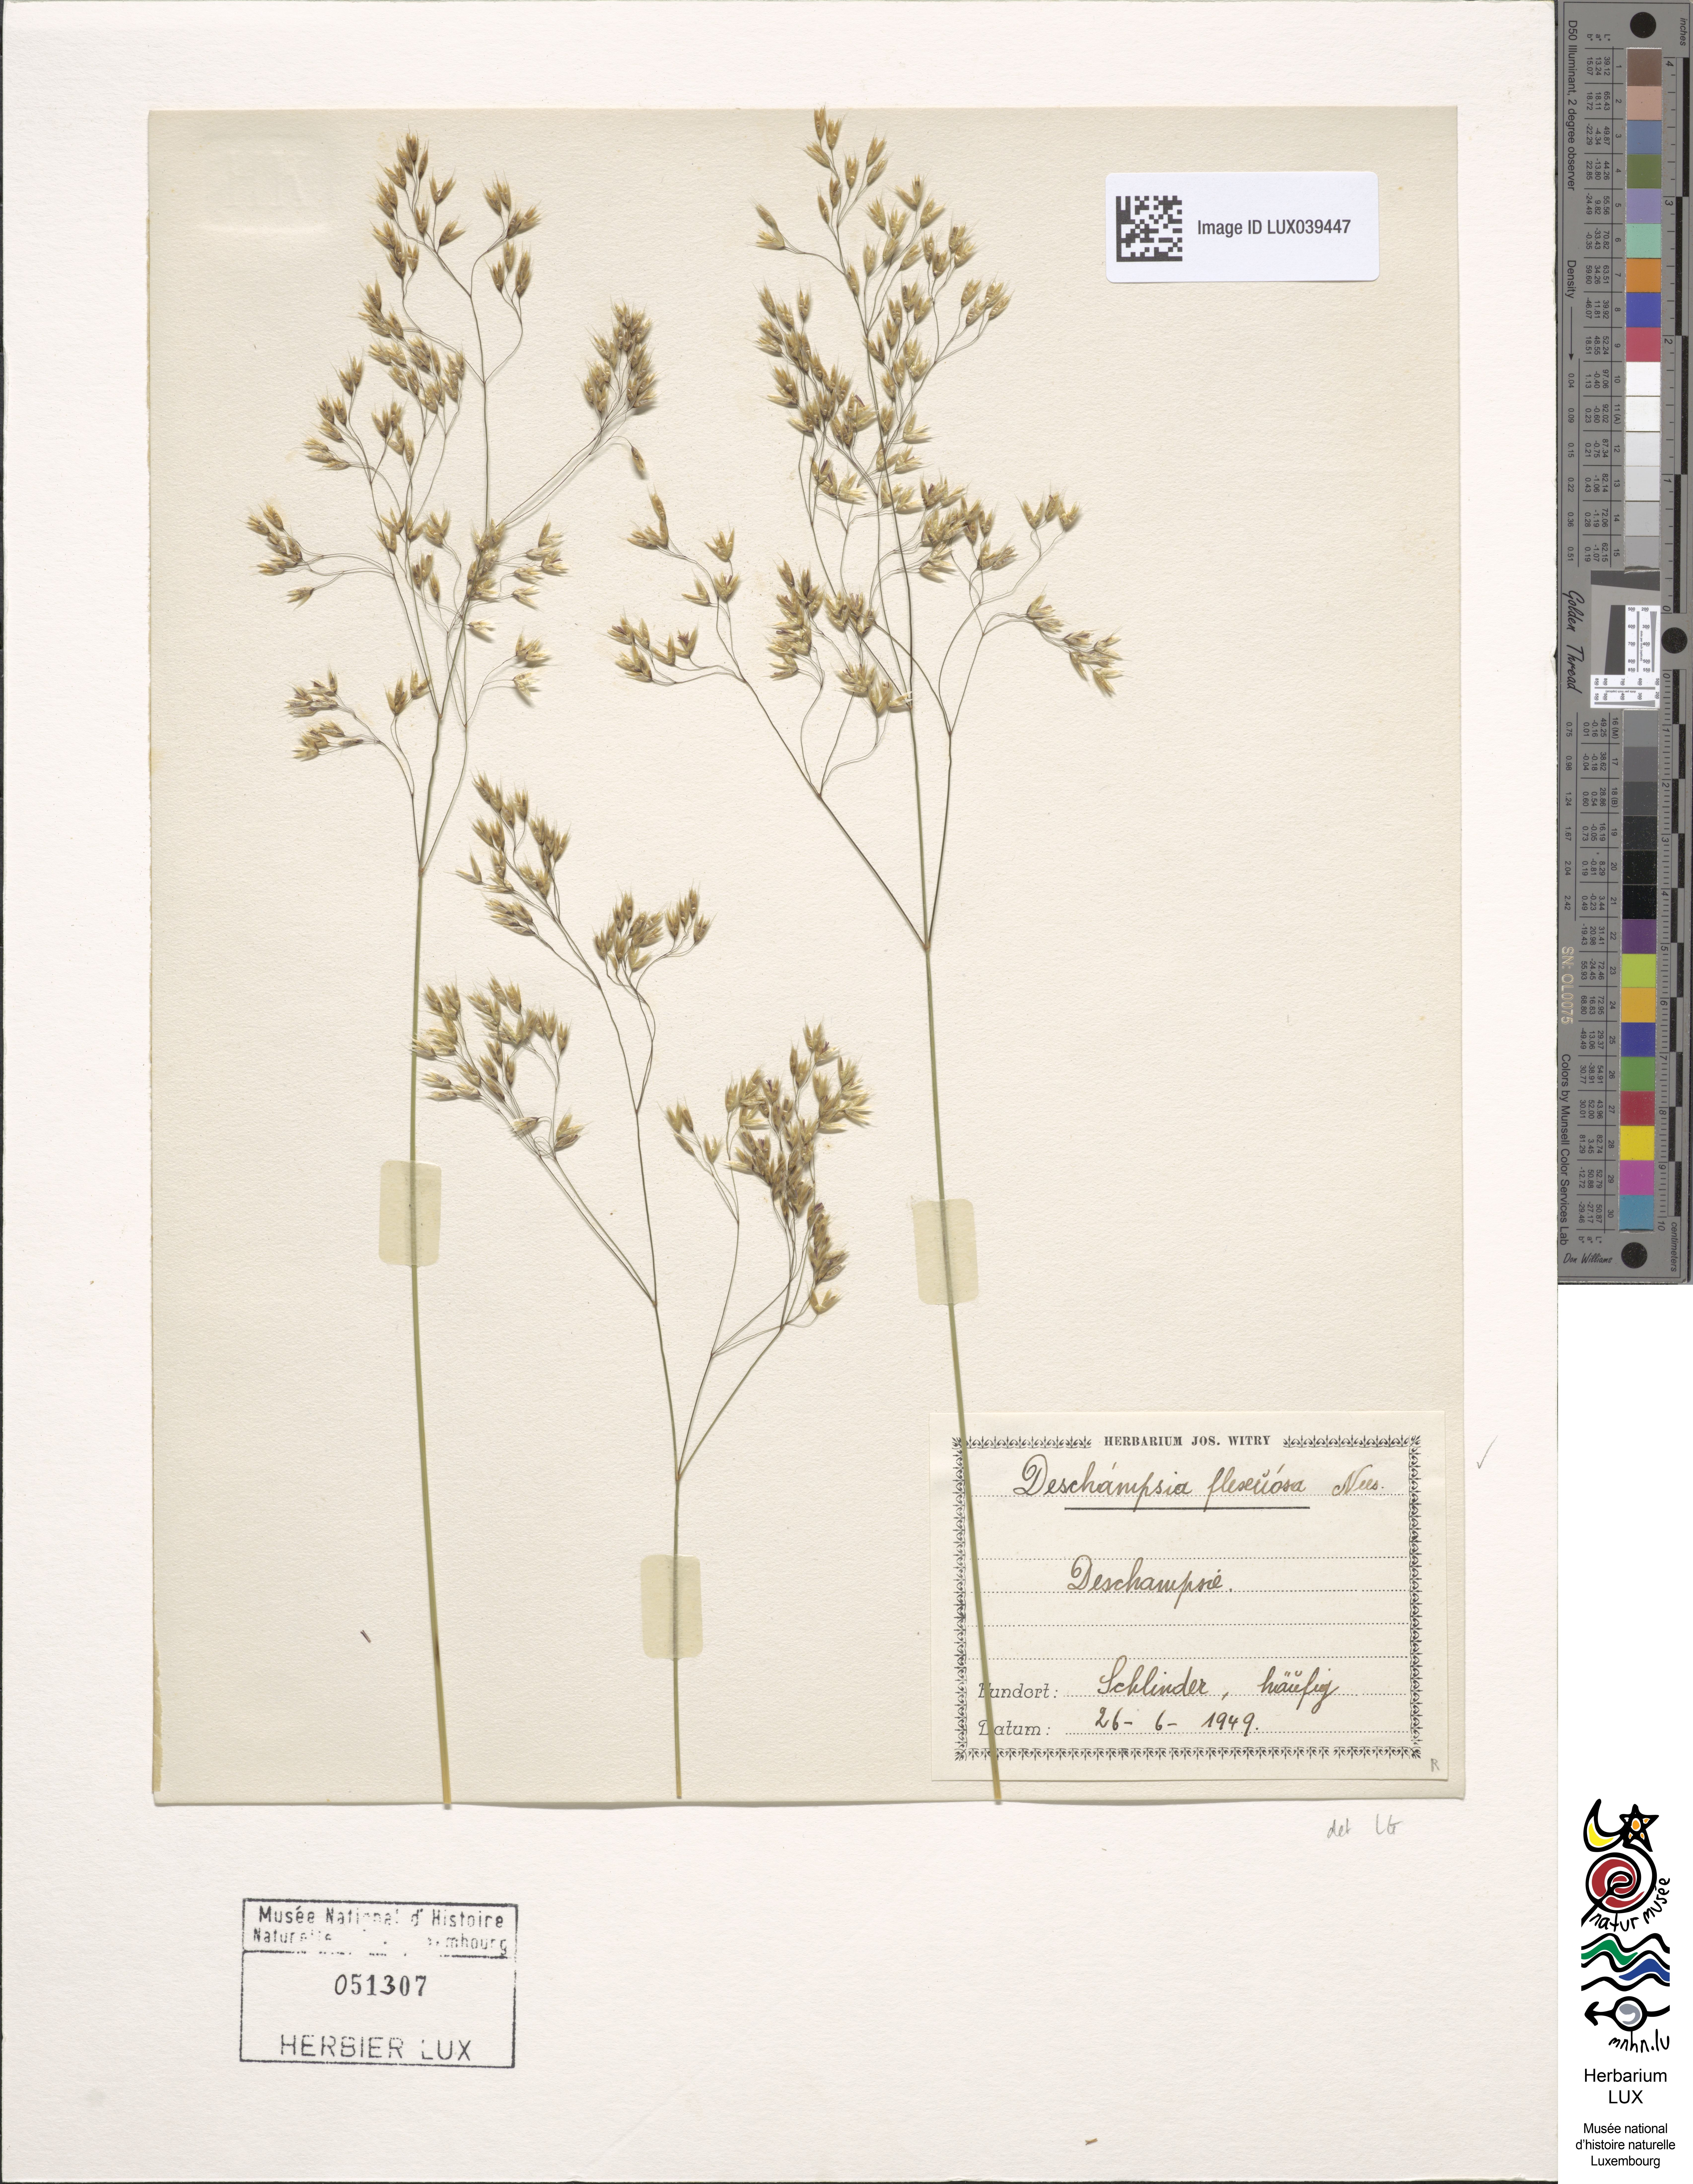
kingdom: Plantae
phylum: Tracheophyta
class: Liliopsida
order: Poales
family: Poaceae
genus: Avenella
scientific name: Avenella flexuosa
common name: Wavy hairgrass
